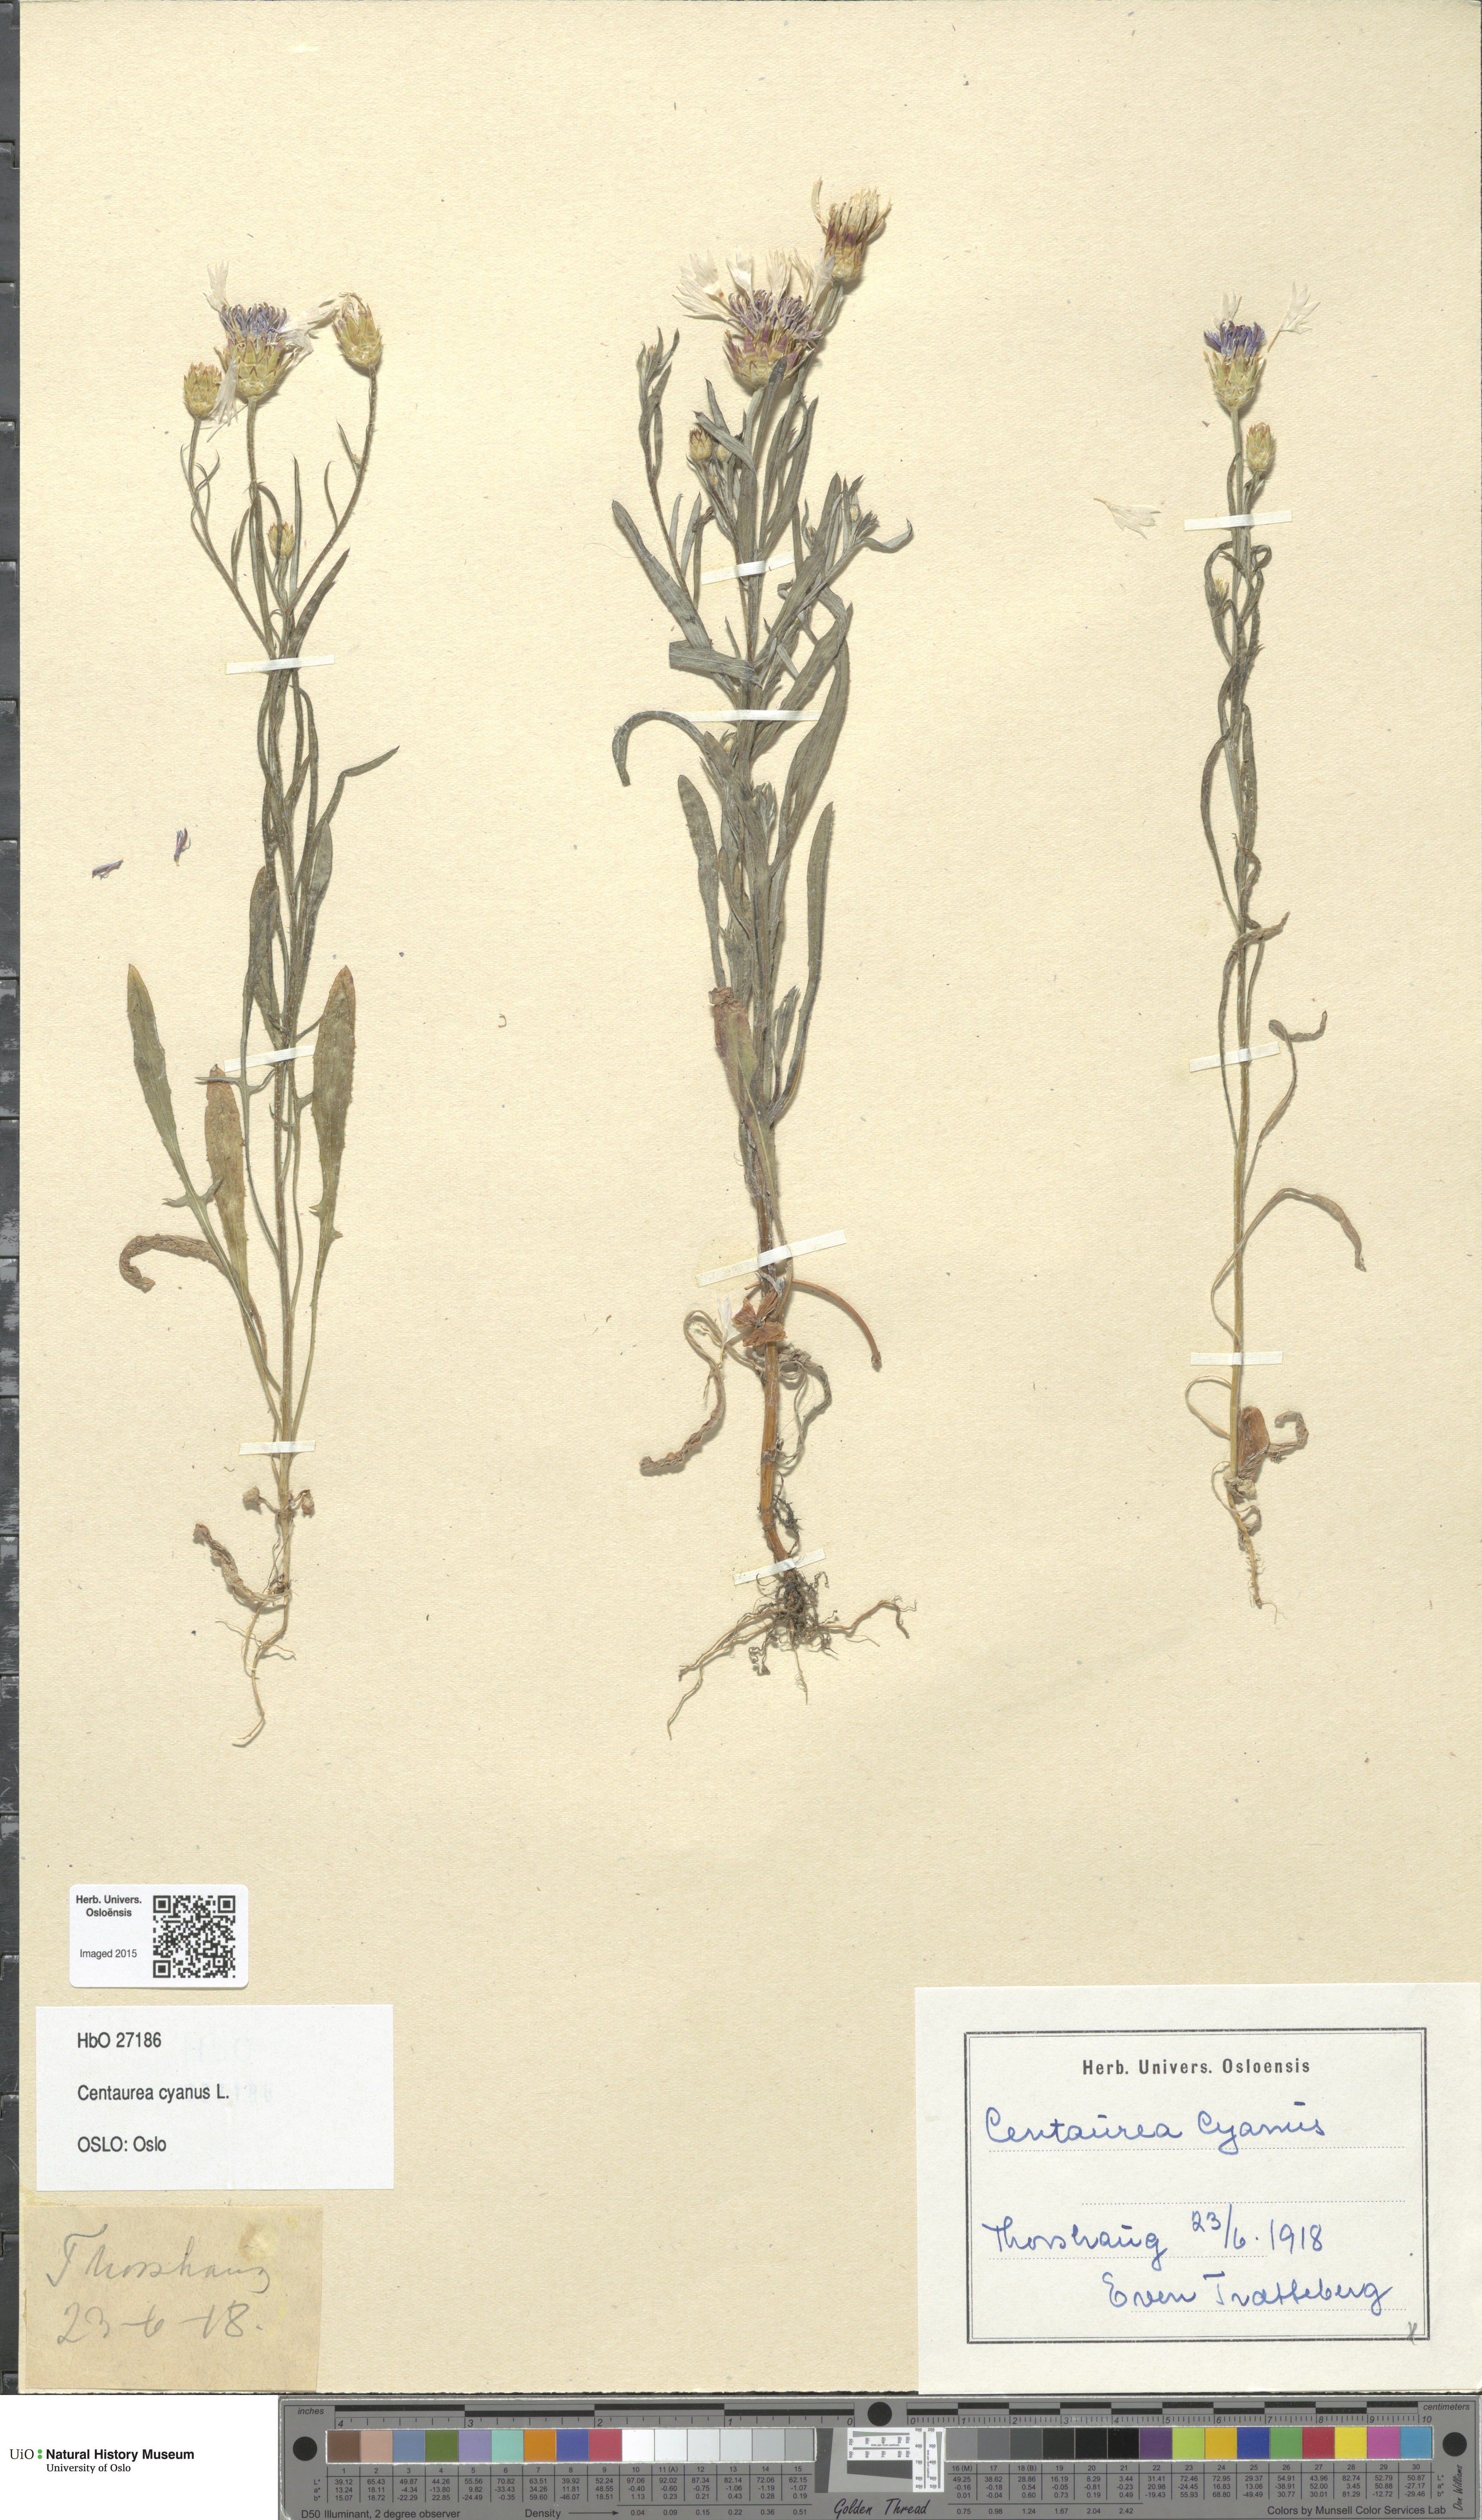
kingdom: Plantae
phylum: Tracheophyta
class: Magnoliopsida
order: Asterales
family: Asteraceae
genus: Centaurea
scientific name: Centaurea cyanus
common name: Cornflower
